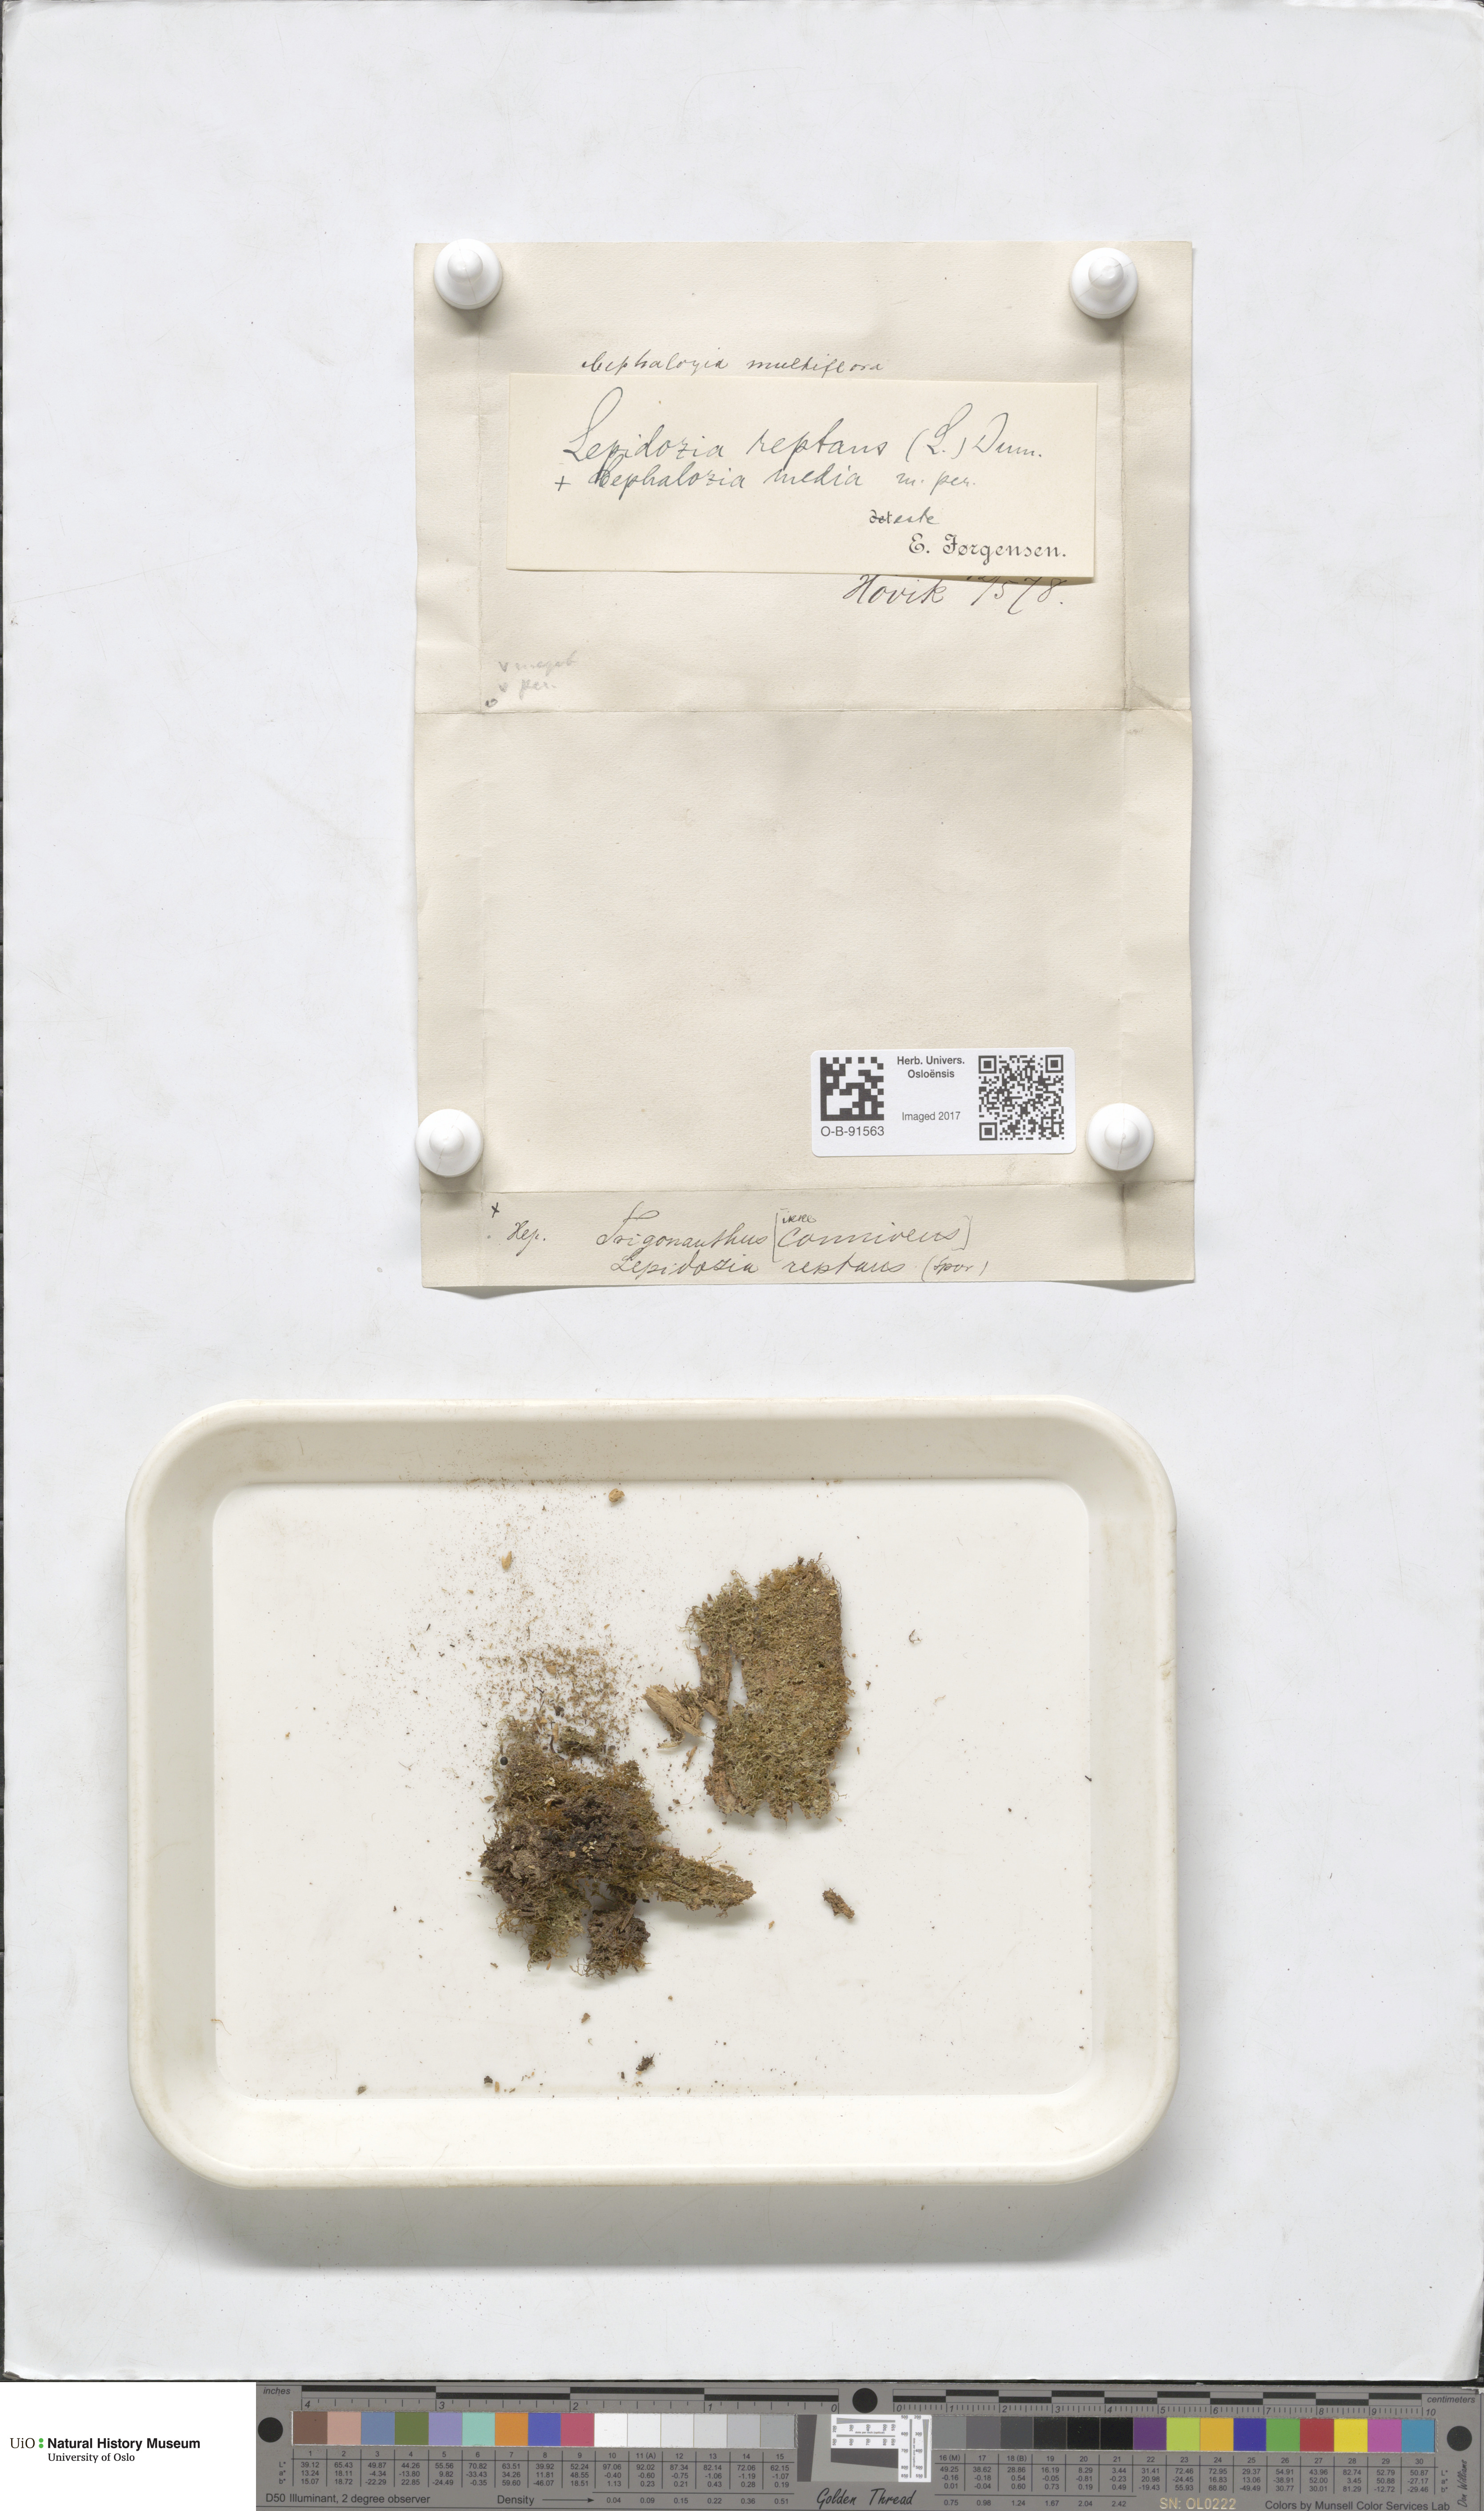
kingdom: Plantae
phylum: Marchantiophyta
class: Jungermanniopsida
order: Jungermanniales
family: Lepidoziaceae
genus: Lepidozia
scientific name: Lepidozia reptans
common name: Creeping fingerwort
